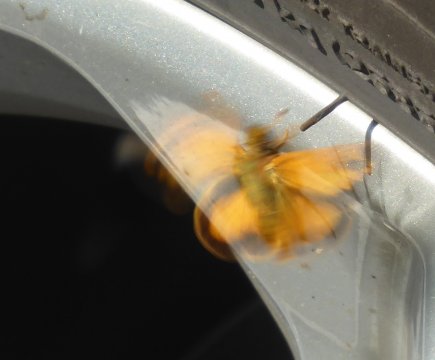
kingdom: Animalia
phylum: Arthropoda
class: Insecta
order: Lepidoptera
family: Hesperiidae
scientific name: Hesperiidae
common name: Skippers
